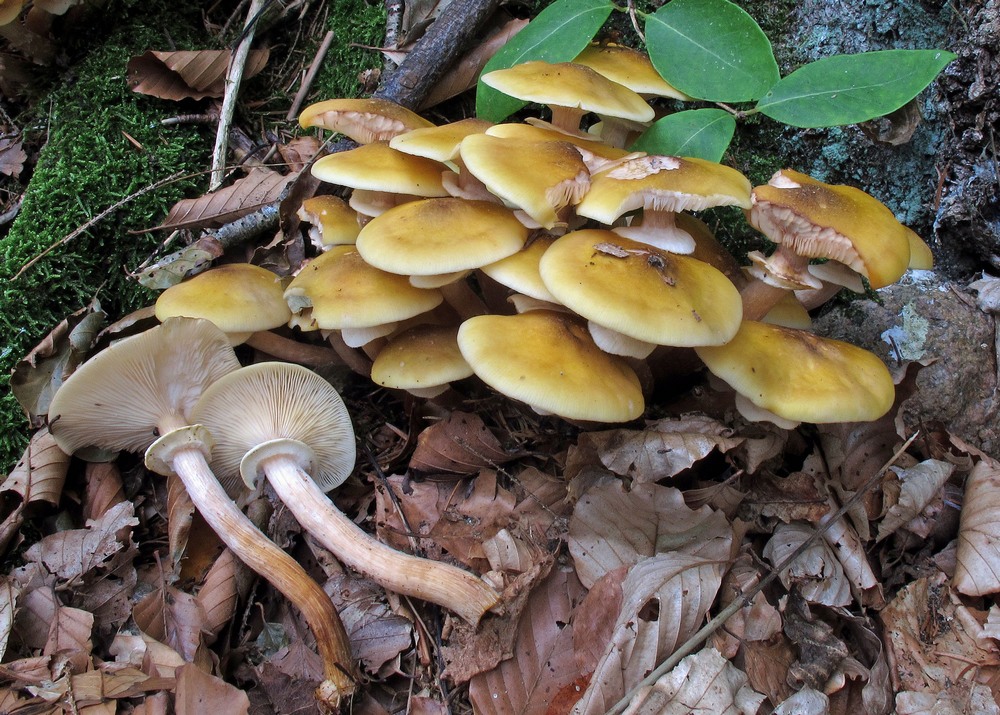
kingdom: Fungi
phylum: Basidiomycota
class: Agaricomycetes
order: Agaricales
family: Physalacriaceae
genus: Armillaria
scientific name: Armillaria mellea
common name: ægte honningsvamp
